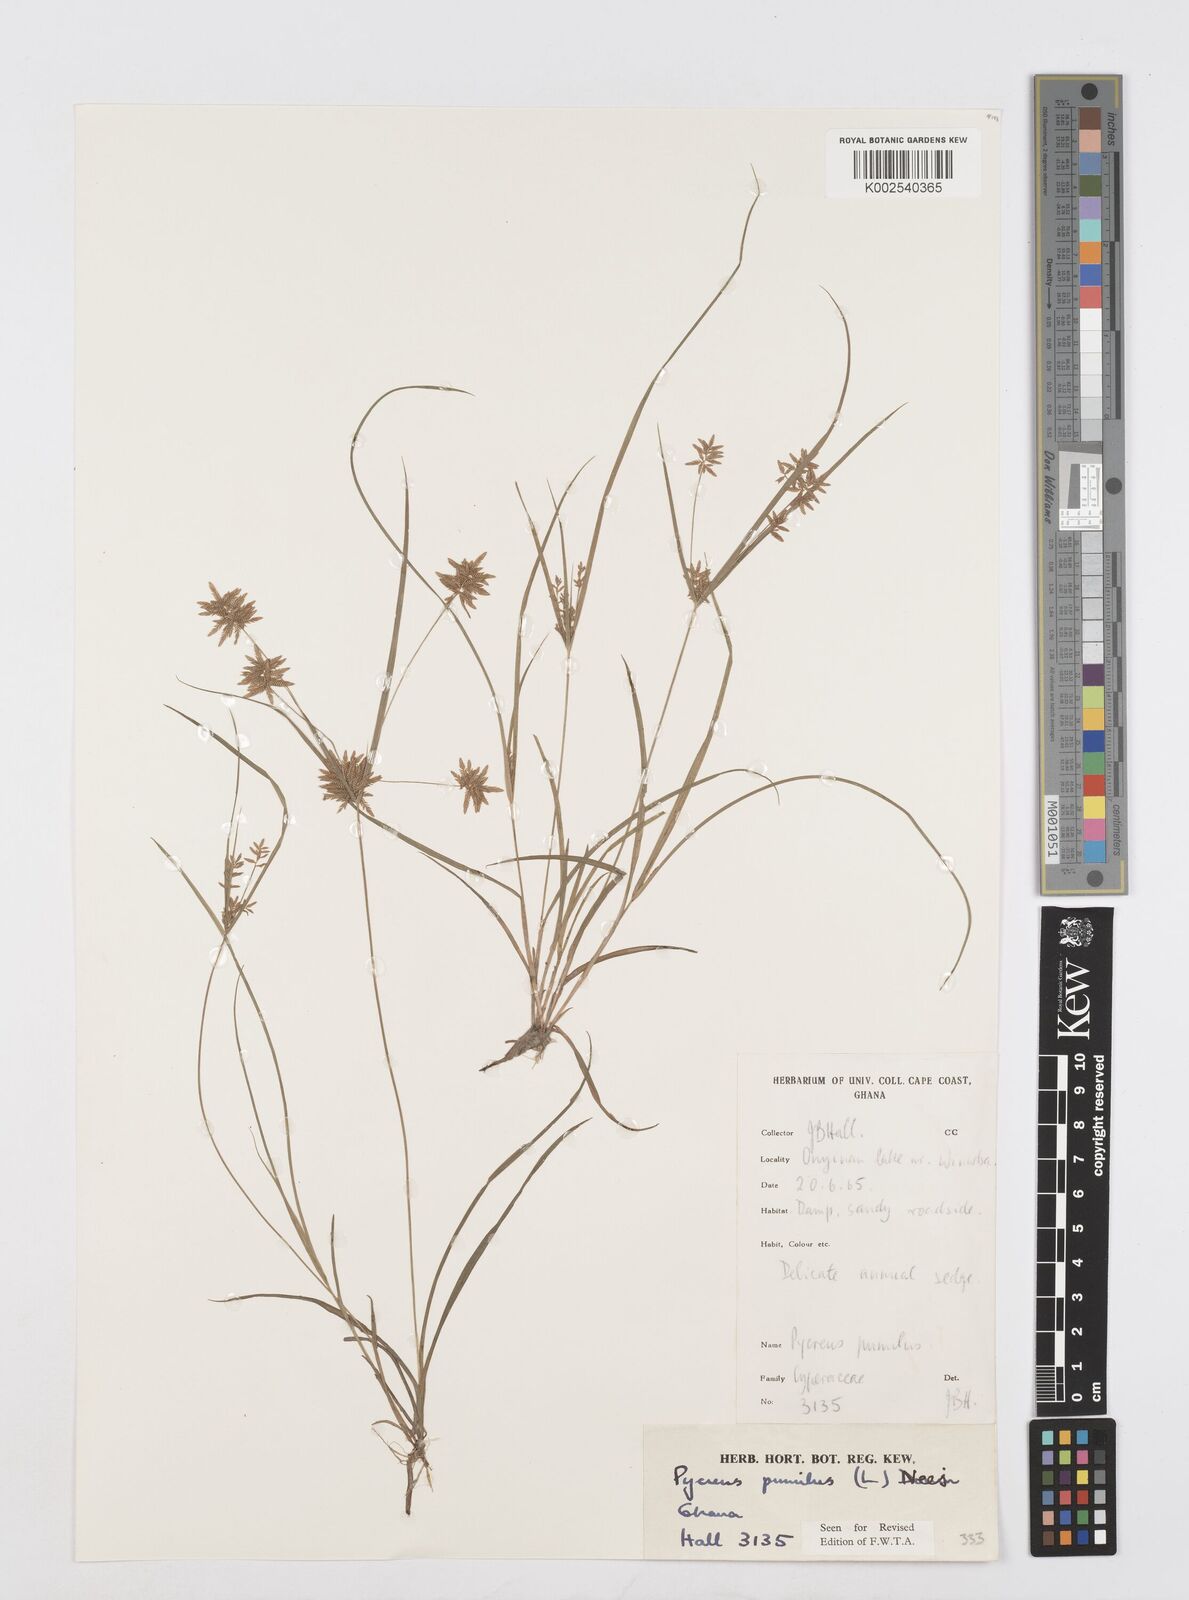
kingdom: Plantae
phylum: Tracheophyta
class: Liliopsida
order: Poales
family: Cyperaceae
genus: Cyperus
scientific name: Cyperus pumilus
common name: Low flatsedge
